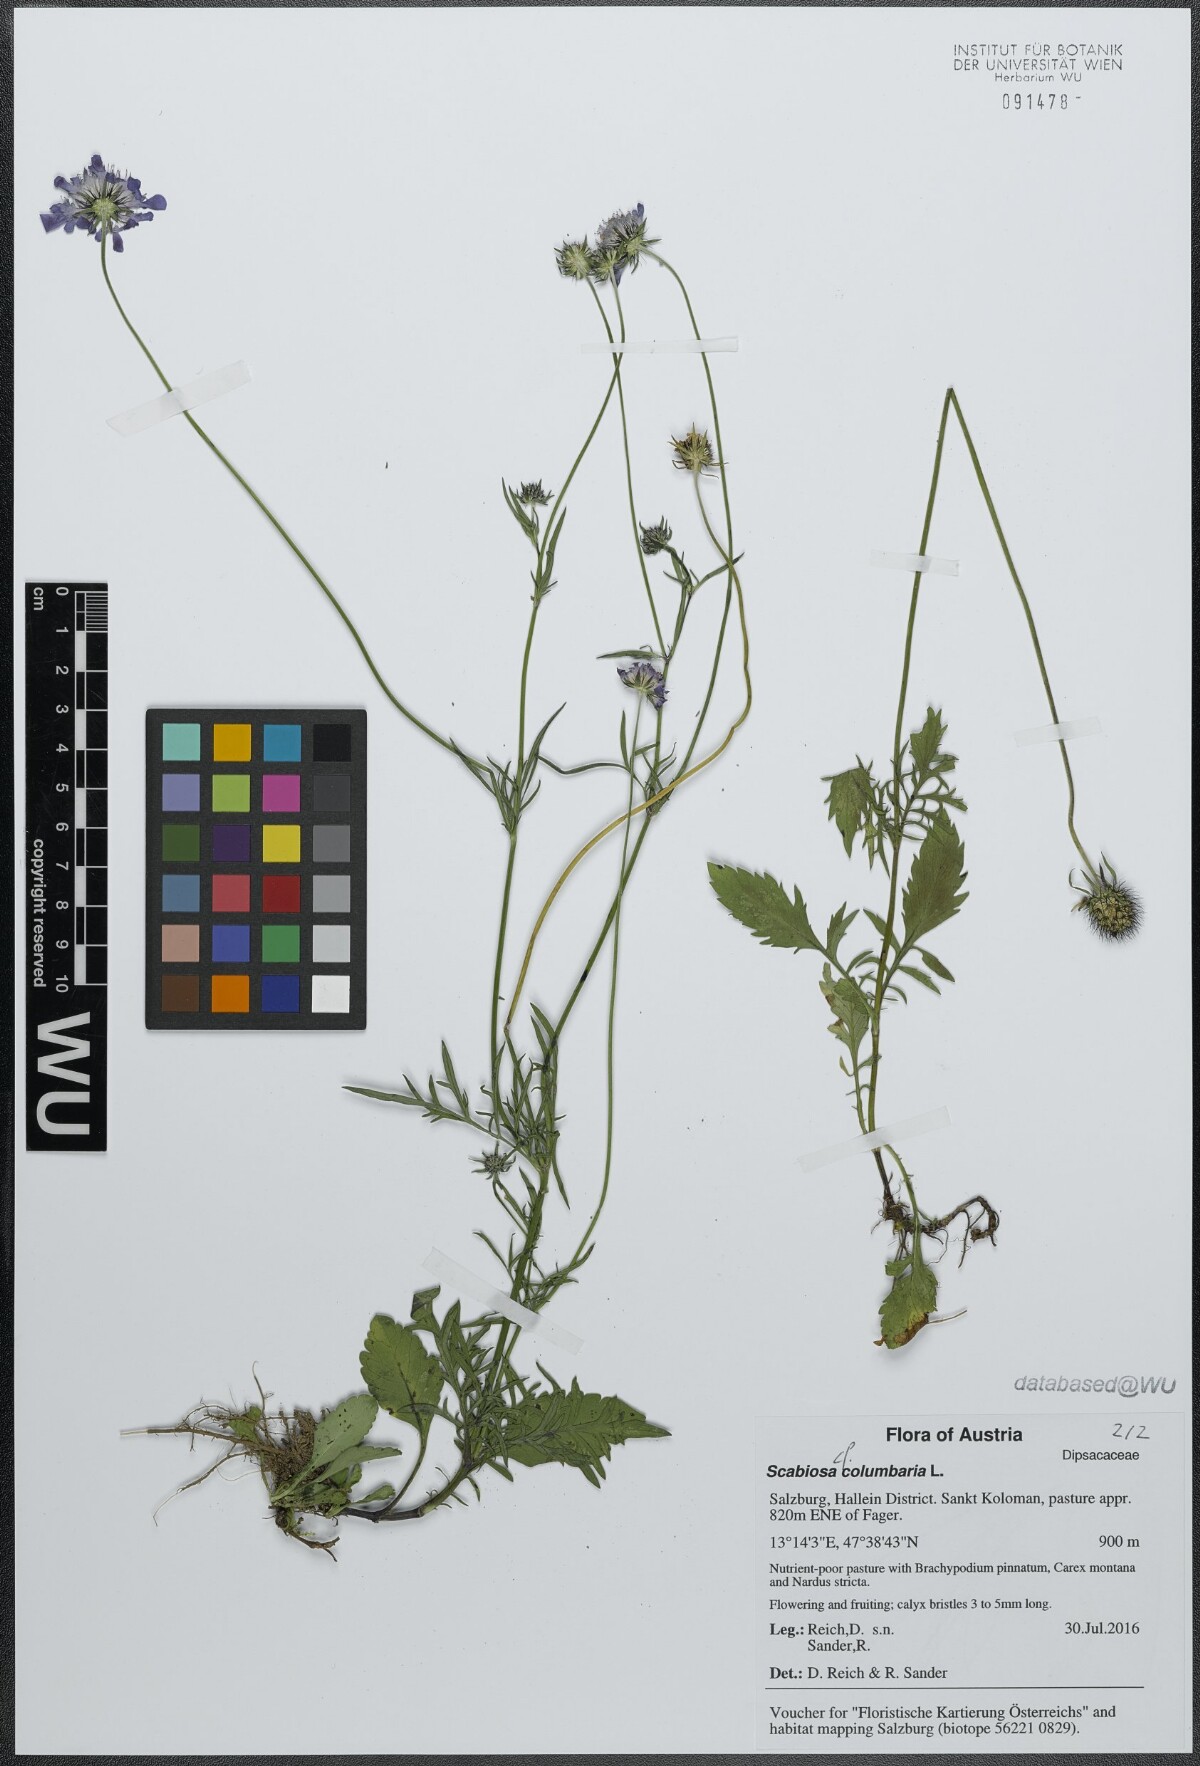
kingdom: Plantae
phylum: Tracheophyta
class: Magnoliopsida
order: Dipsacales
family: Caprifoliaceae
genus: Scabiosa
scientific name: Scabiosa columbaria
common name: Small scabious
